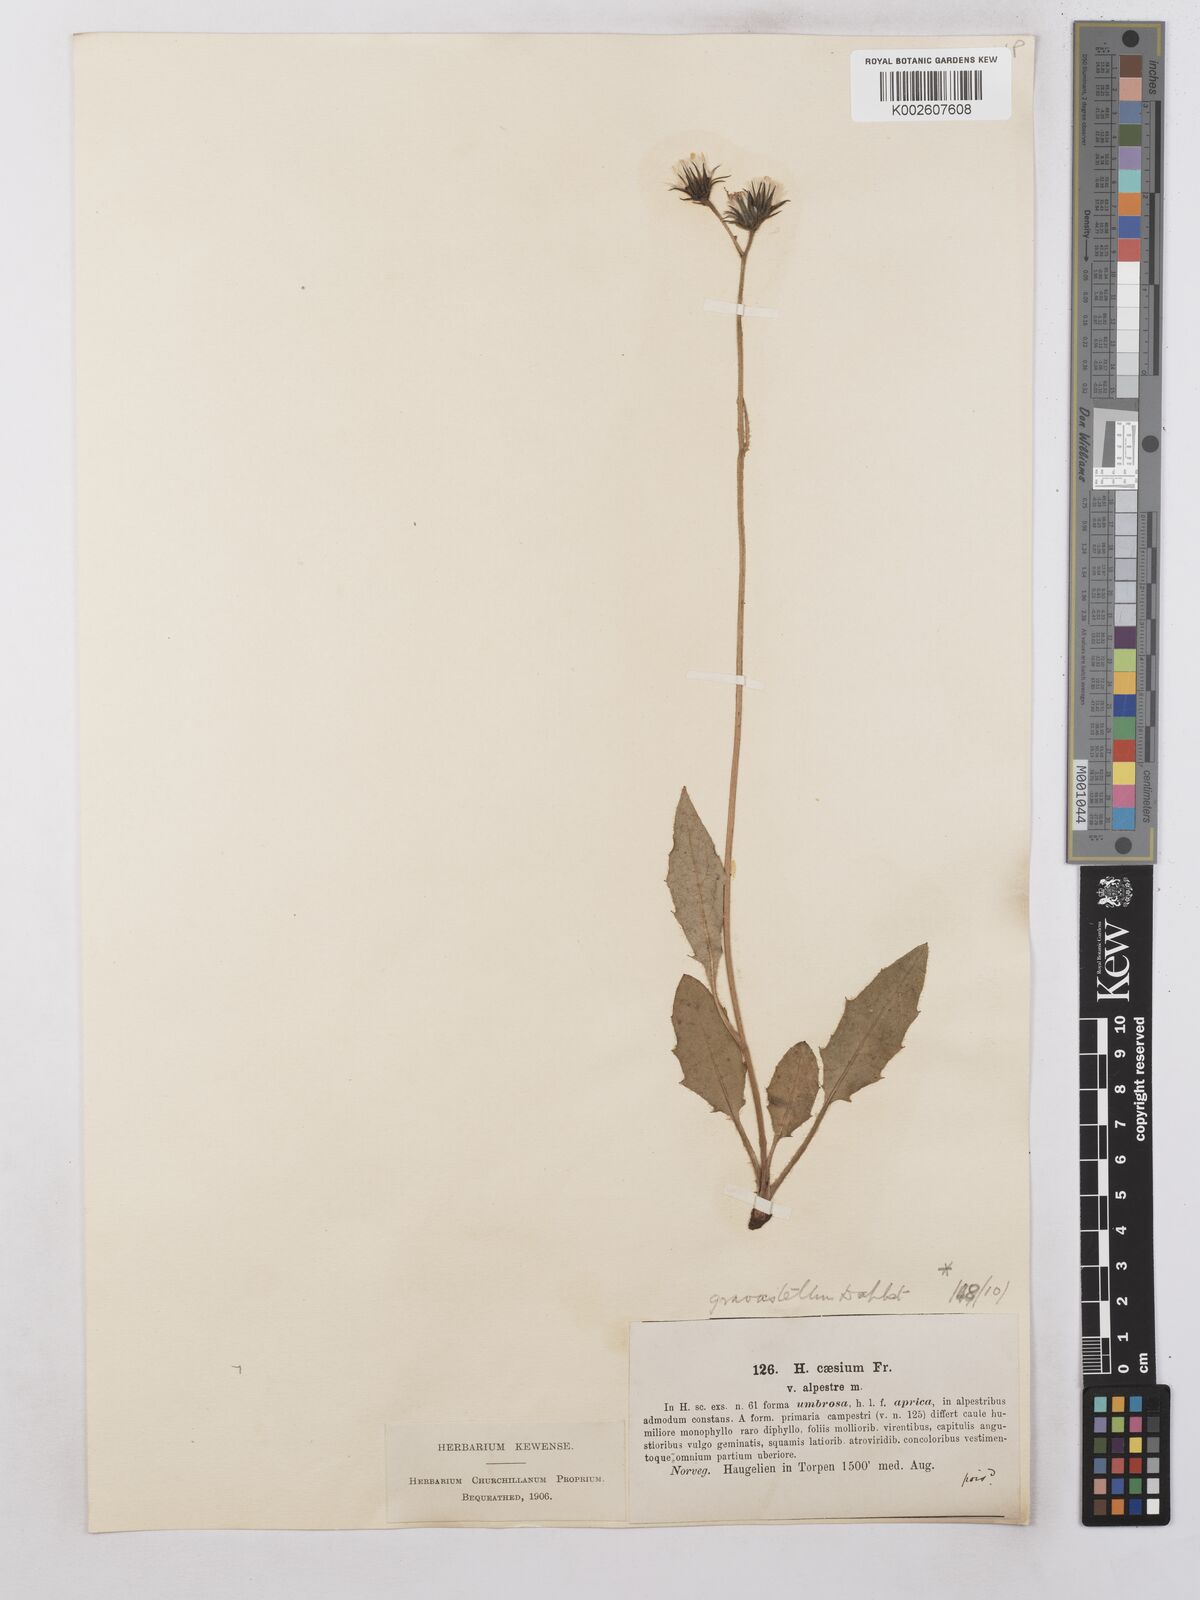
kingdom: Plantae
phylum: Tracheophyta
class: Magnoliopsida
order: Asterales
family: Asteraceae
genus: Hieracium
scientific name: Hieracium subramosum
